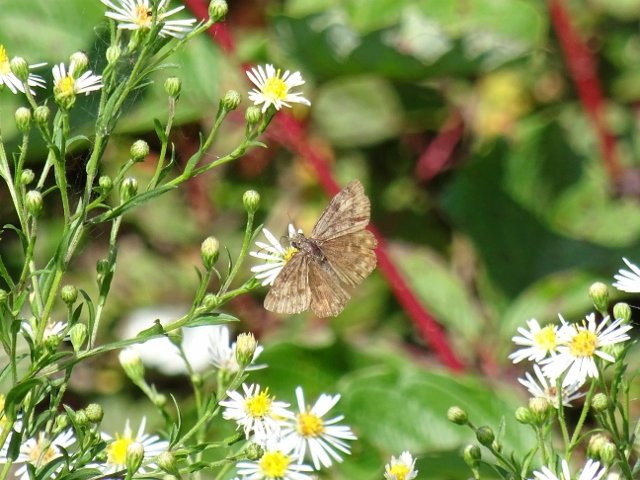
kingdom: Animalia
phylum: Arthropoda
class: Insecta
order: Lepidoptera
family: Hesperiidae
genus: Gesta
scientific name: Gesta
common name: Wild Indigo Duskywing
